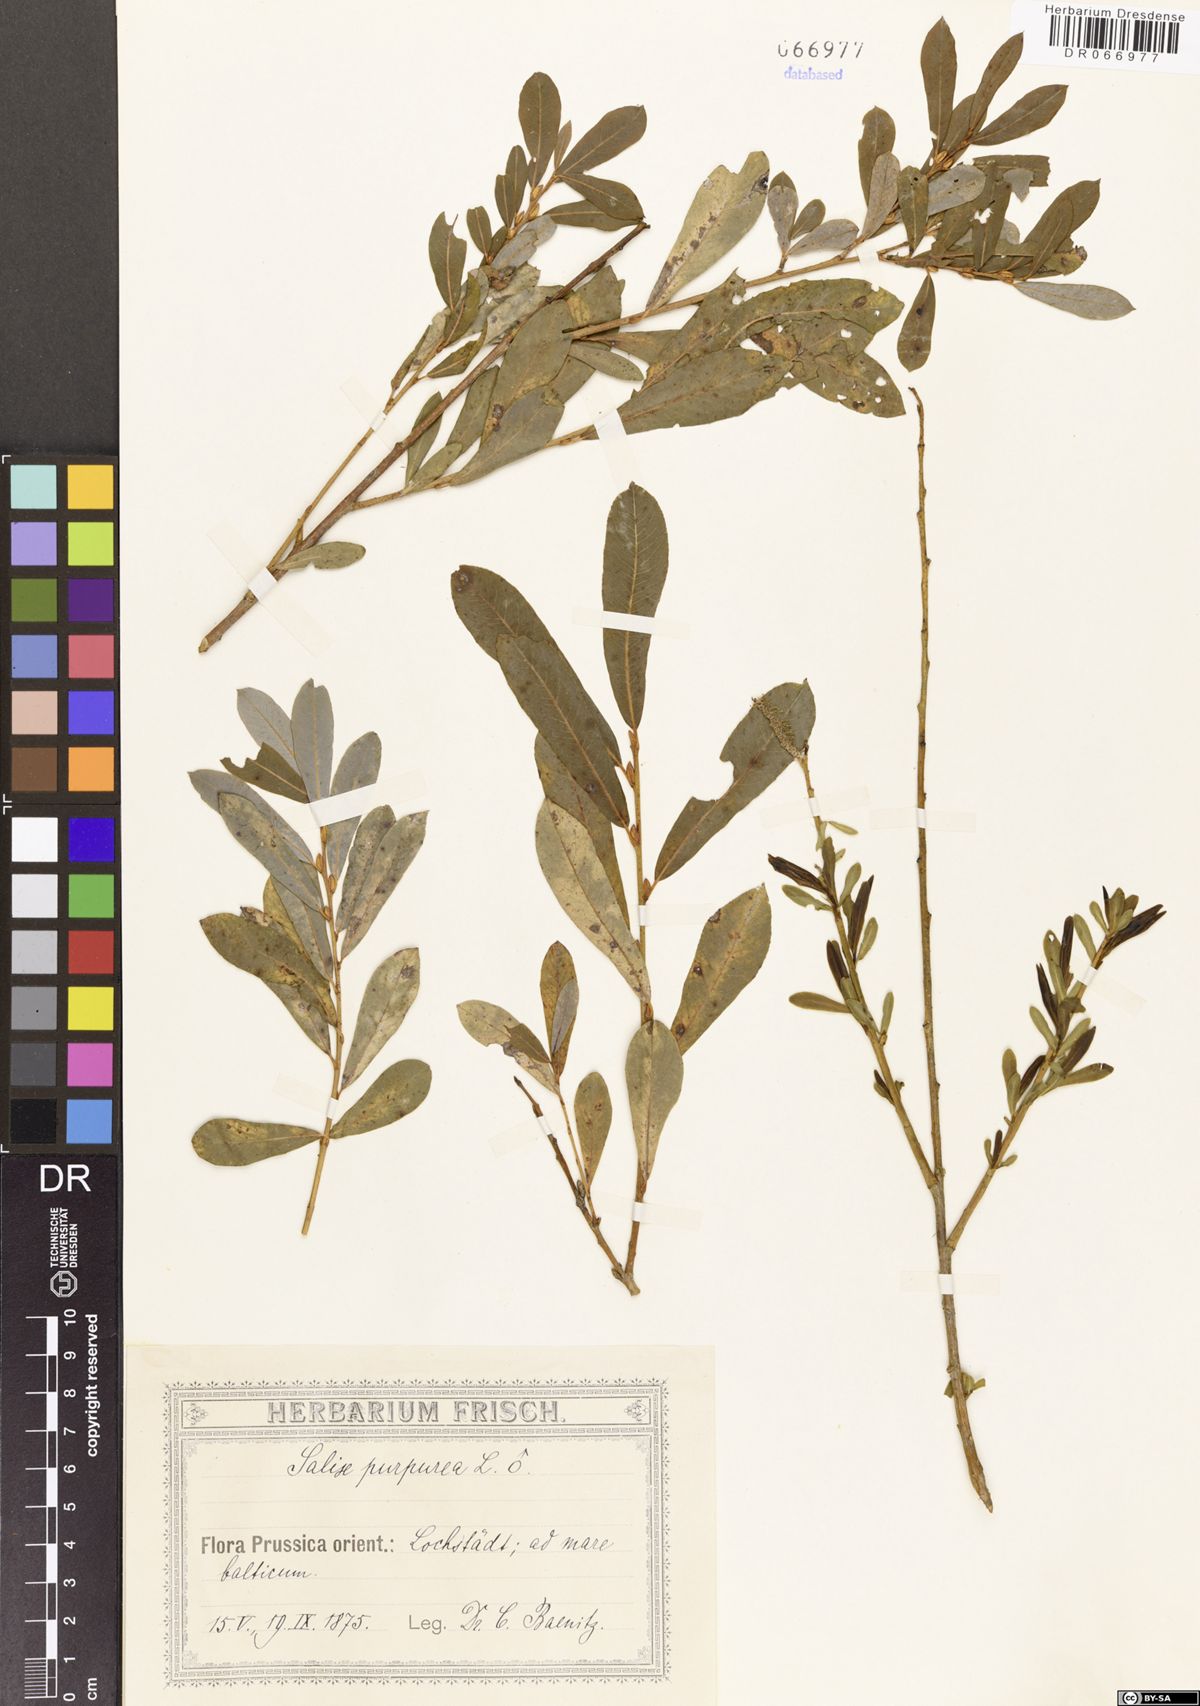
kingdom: Plantae
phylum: Tracheophyta
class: Magnoliopsida
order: Malpighiales
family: Salicaceae
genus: Salix
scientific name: Salix purpurea
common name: Purple willow
